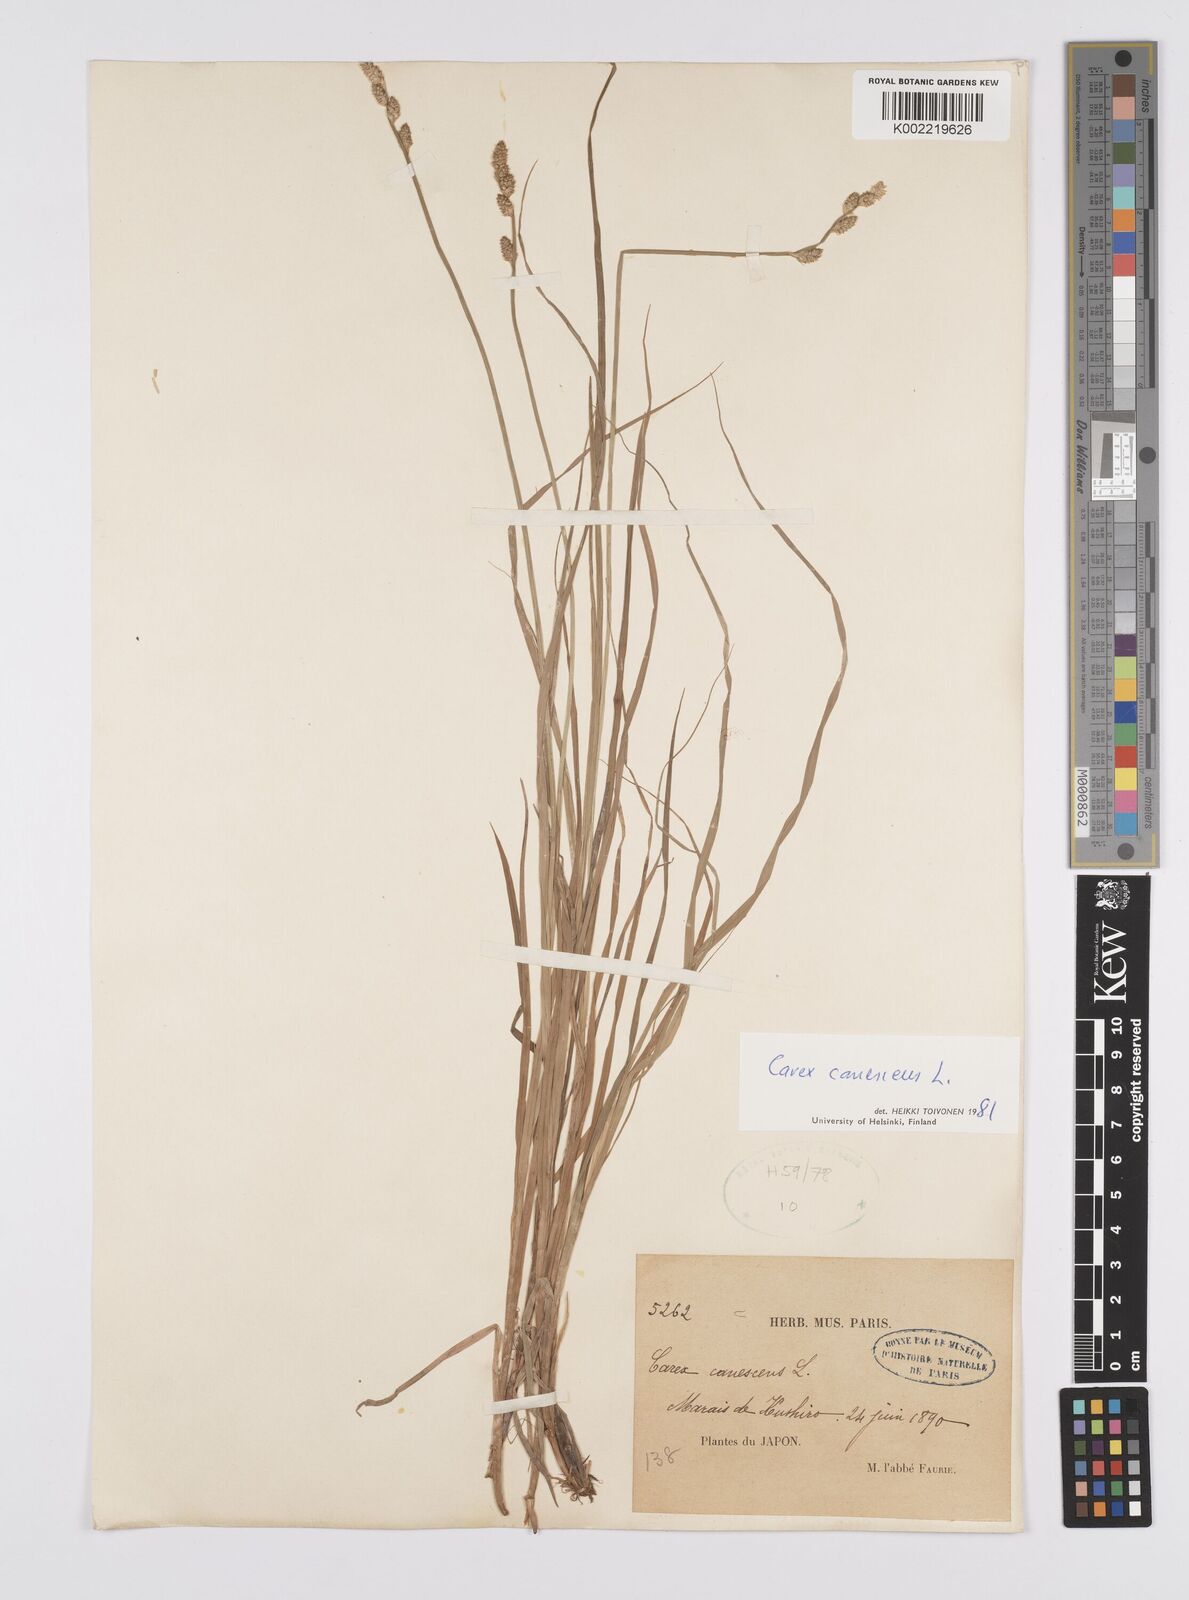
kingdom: Plantae
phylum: Tracheophyta
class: Liliopsida
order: Poales
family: Cyperaceae
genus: Carex
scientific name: Carex canescens
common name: White sedge
